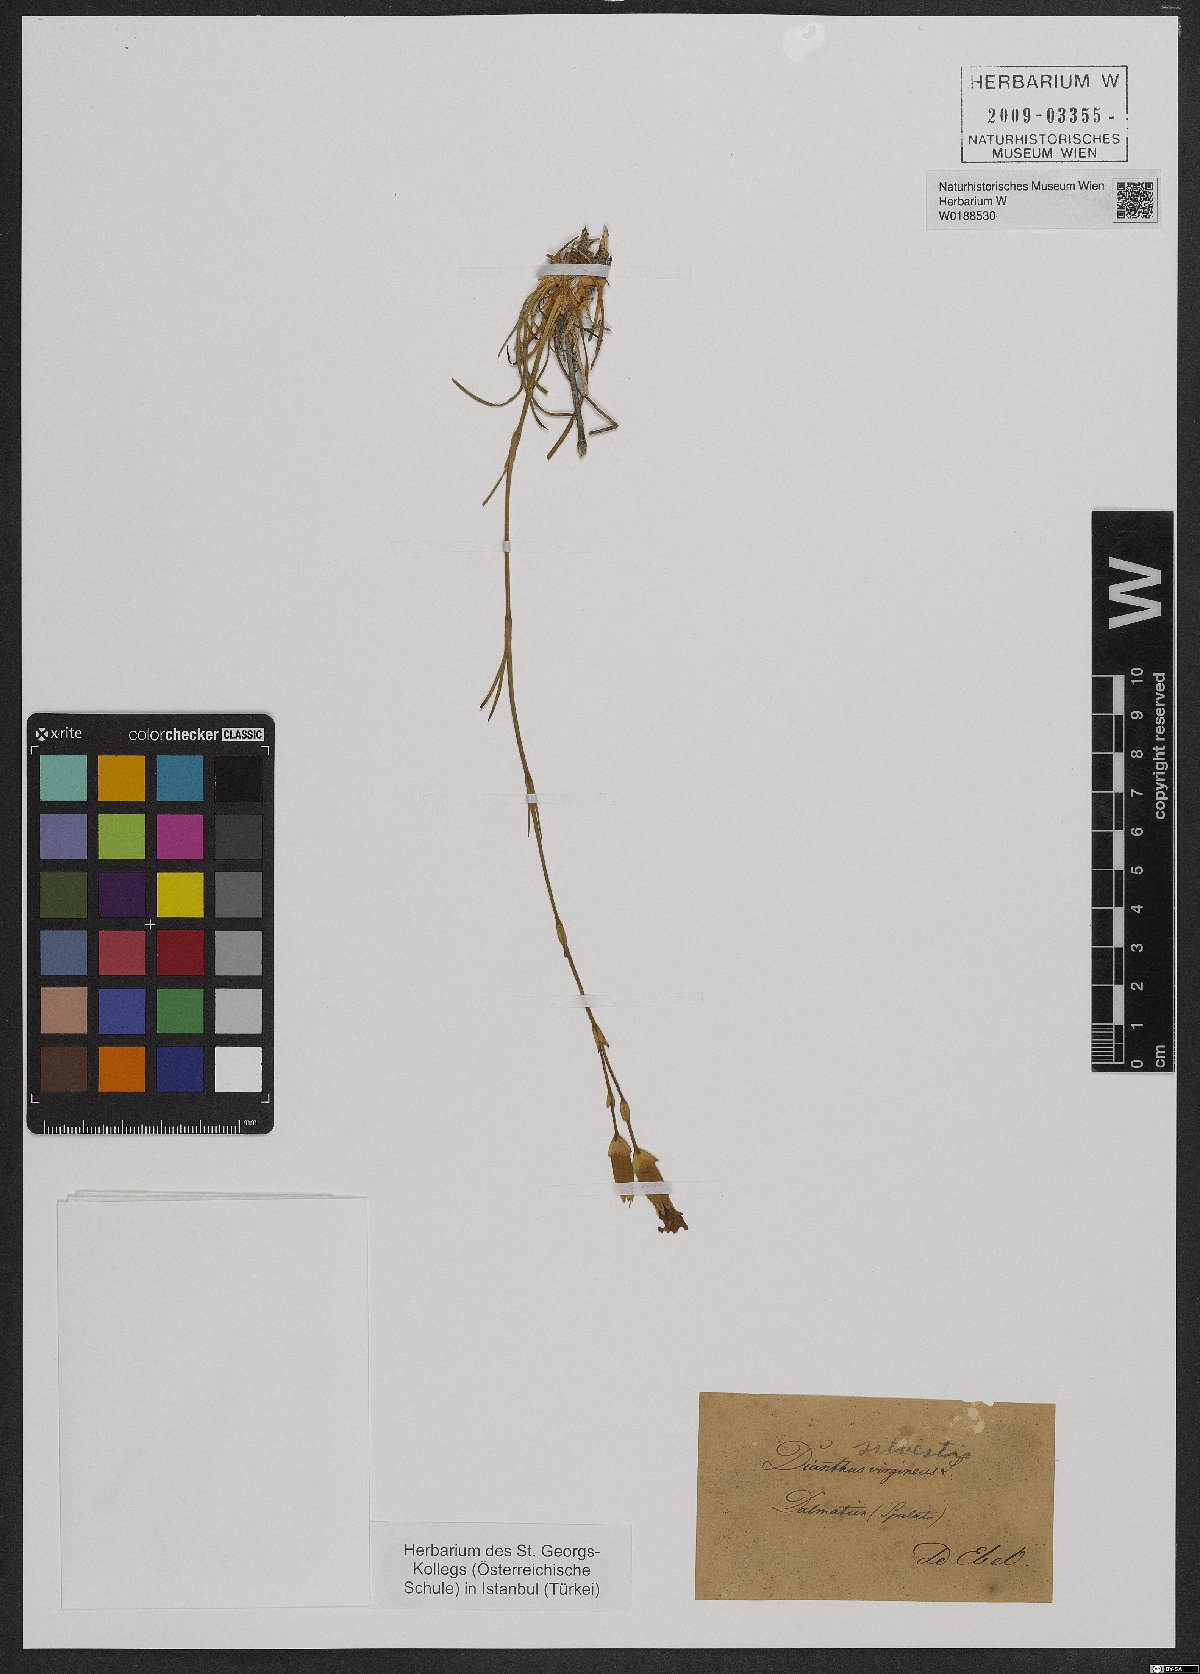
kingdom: Plantae
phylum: Tracheophyta
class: Magnoliopsida
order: Caryophyllales
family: Caryophyllaceae
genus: Dianthus
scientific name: Dianthus sylvestris
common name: Wood pink
